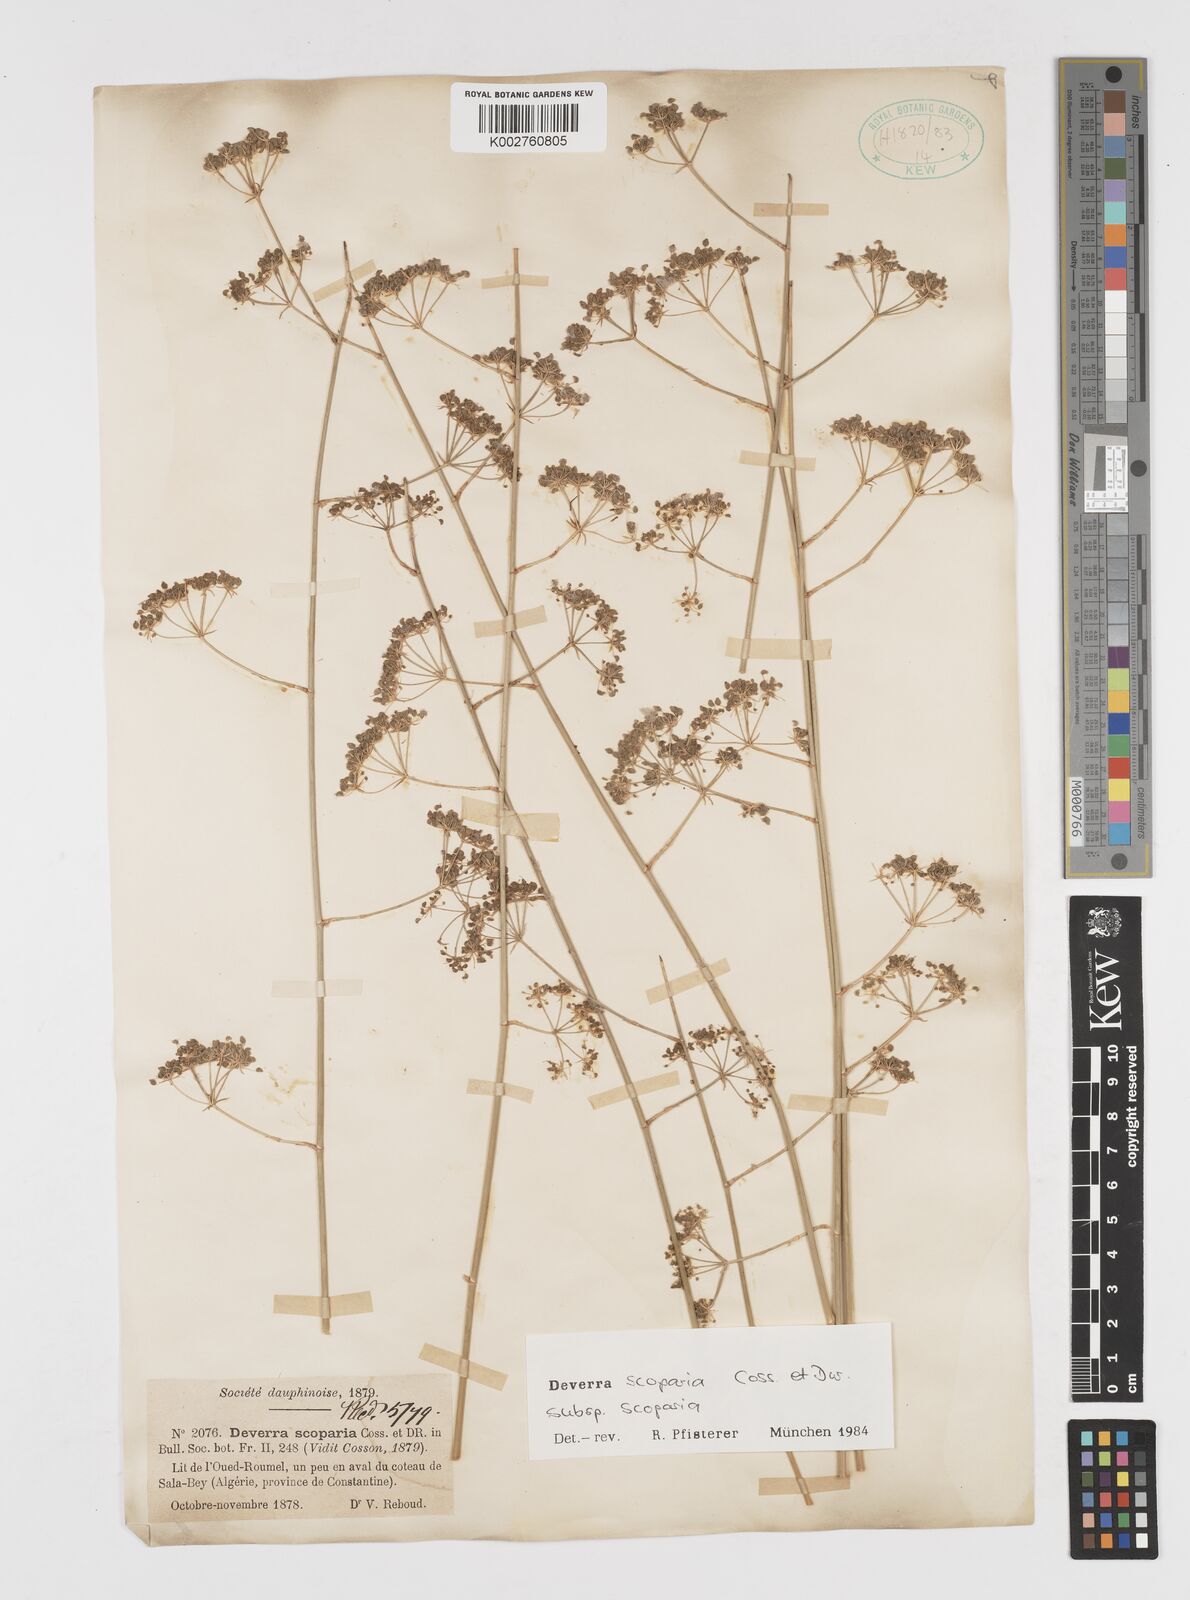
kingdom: Plantae
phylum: Tracheophyta
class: Magnoliopsida
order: Apiales
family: Apiaceae
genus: Deverra
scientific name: Deverra scoparia
